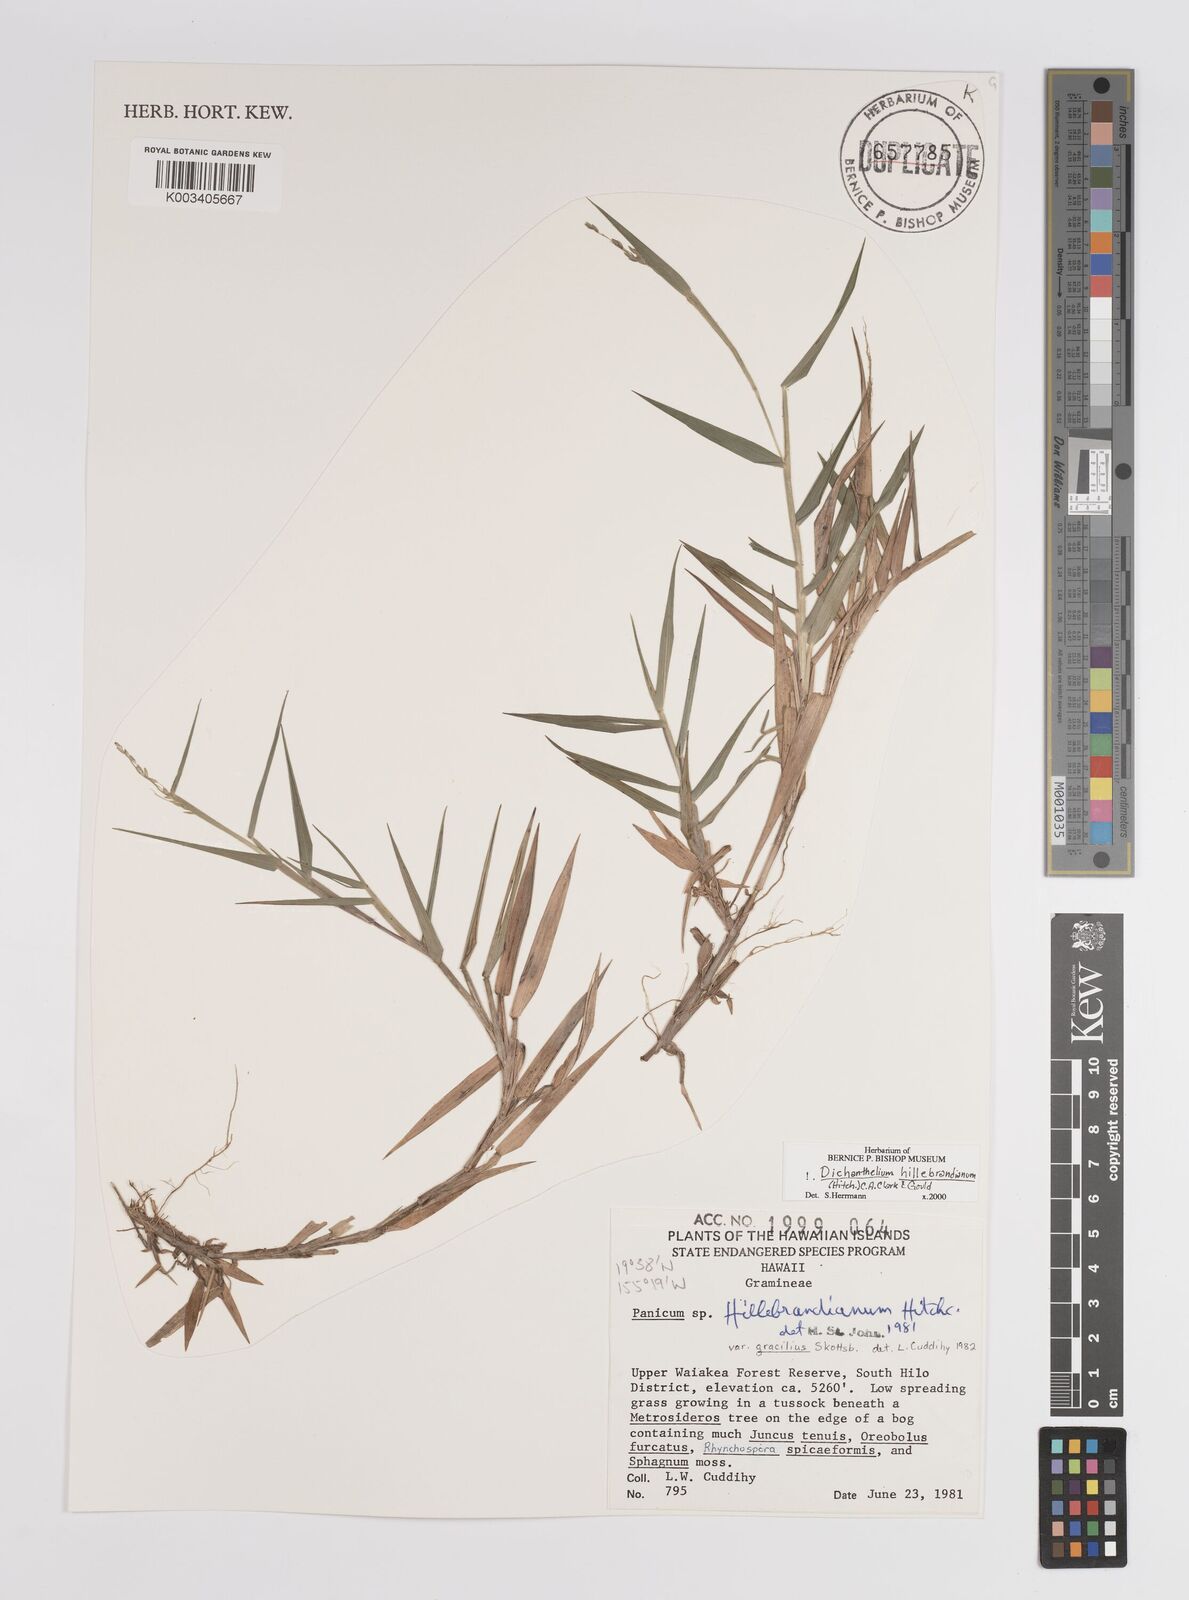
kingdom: Plantae
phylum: Tracheophyta
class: Liliopsida
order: Poales
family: Poaceae
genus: Dichanthelium
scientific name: Dichanthelium hillebrandianum
